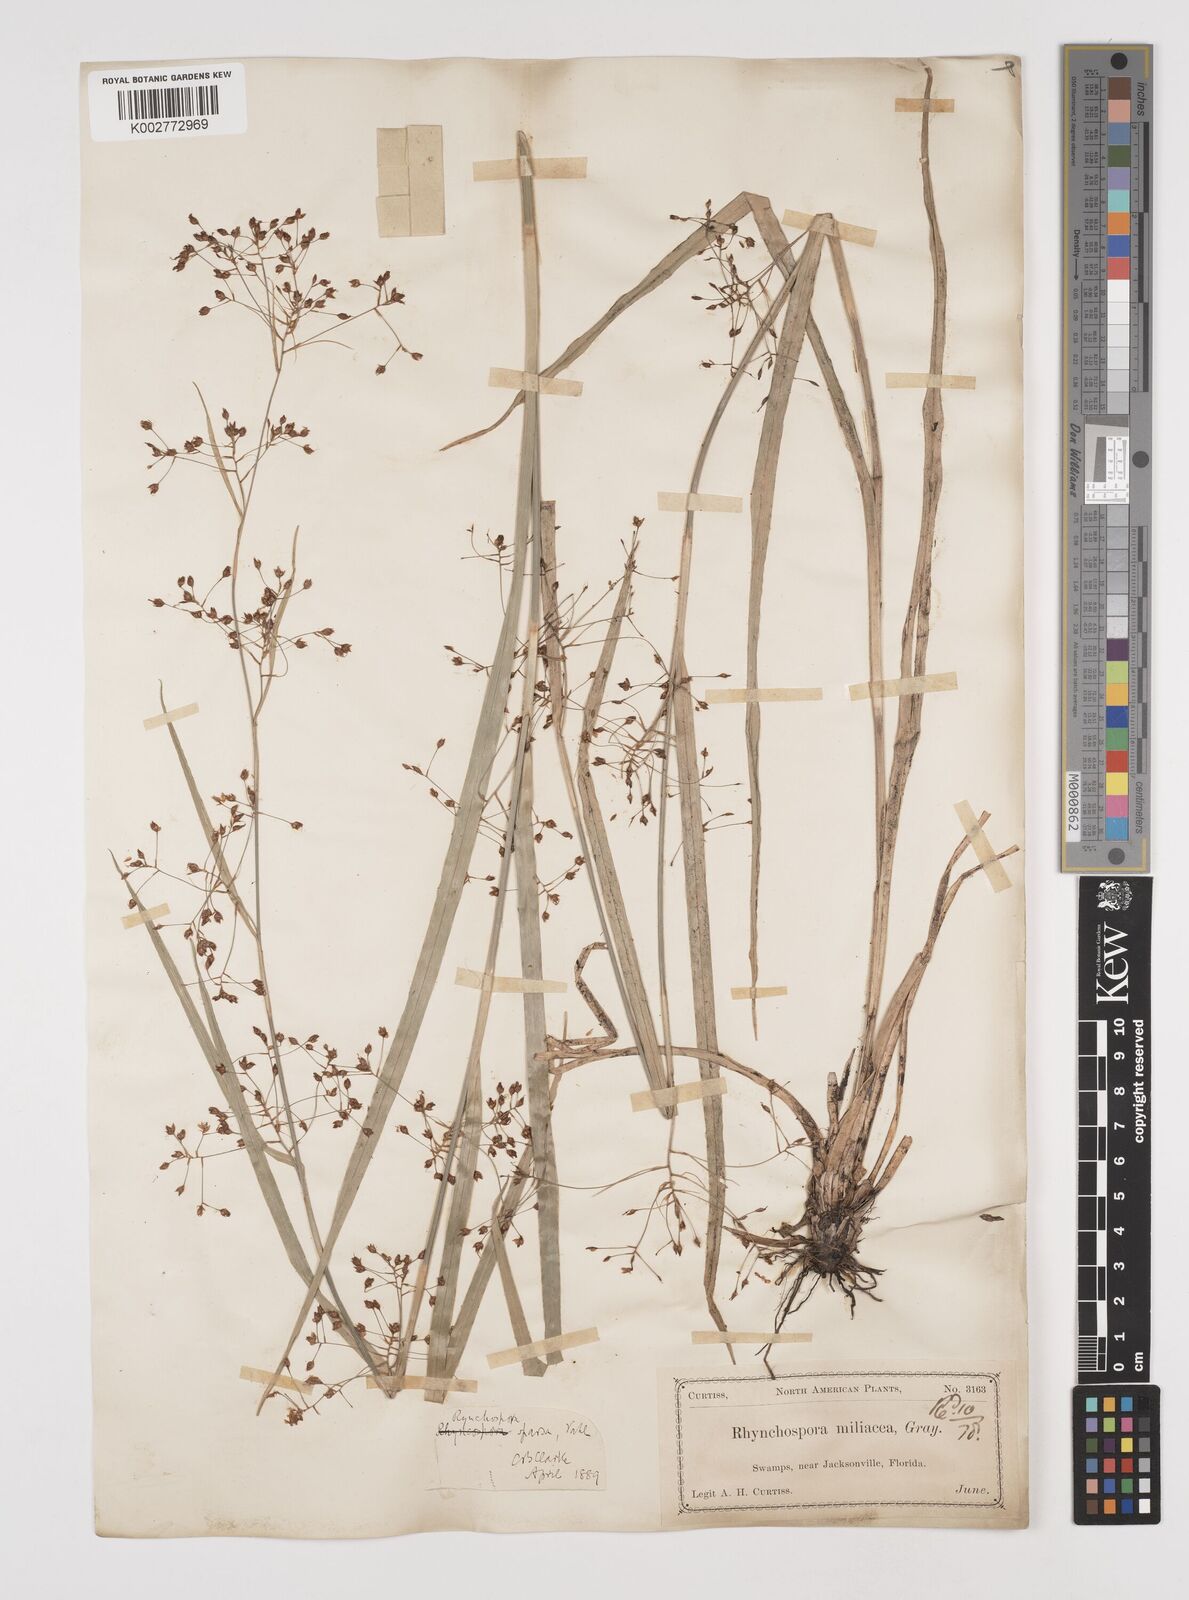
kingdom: Plantae
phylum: Tracheophyta
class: Liliopsida
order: Poales
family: Cyperaceae
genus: Rhynchospora
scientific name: Rhynchospora miliacea
